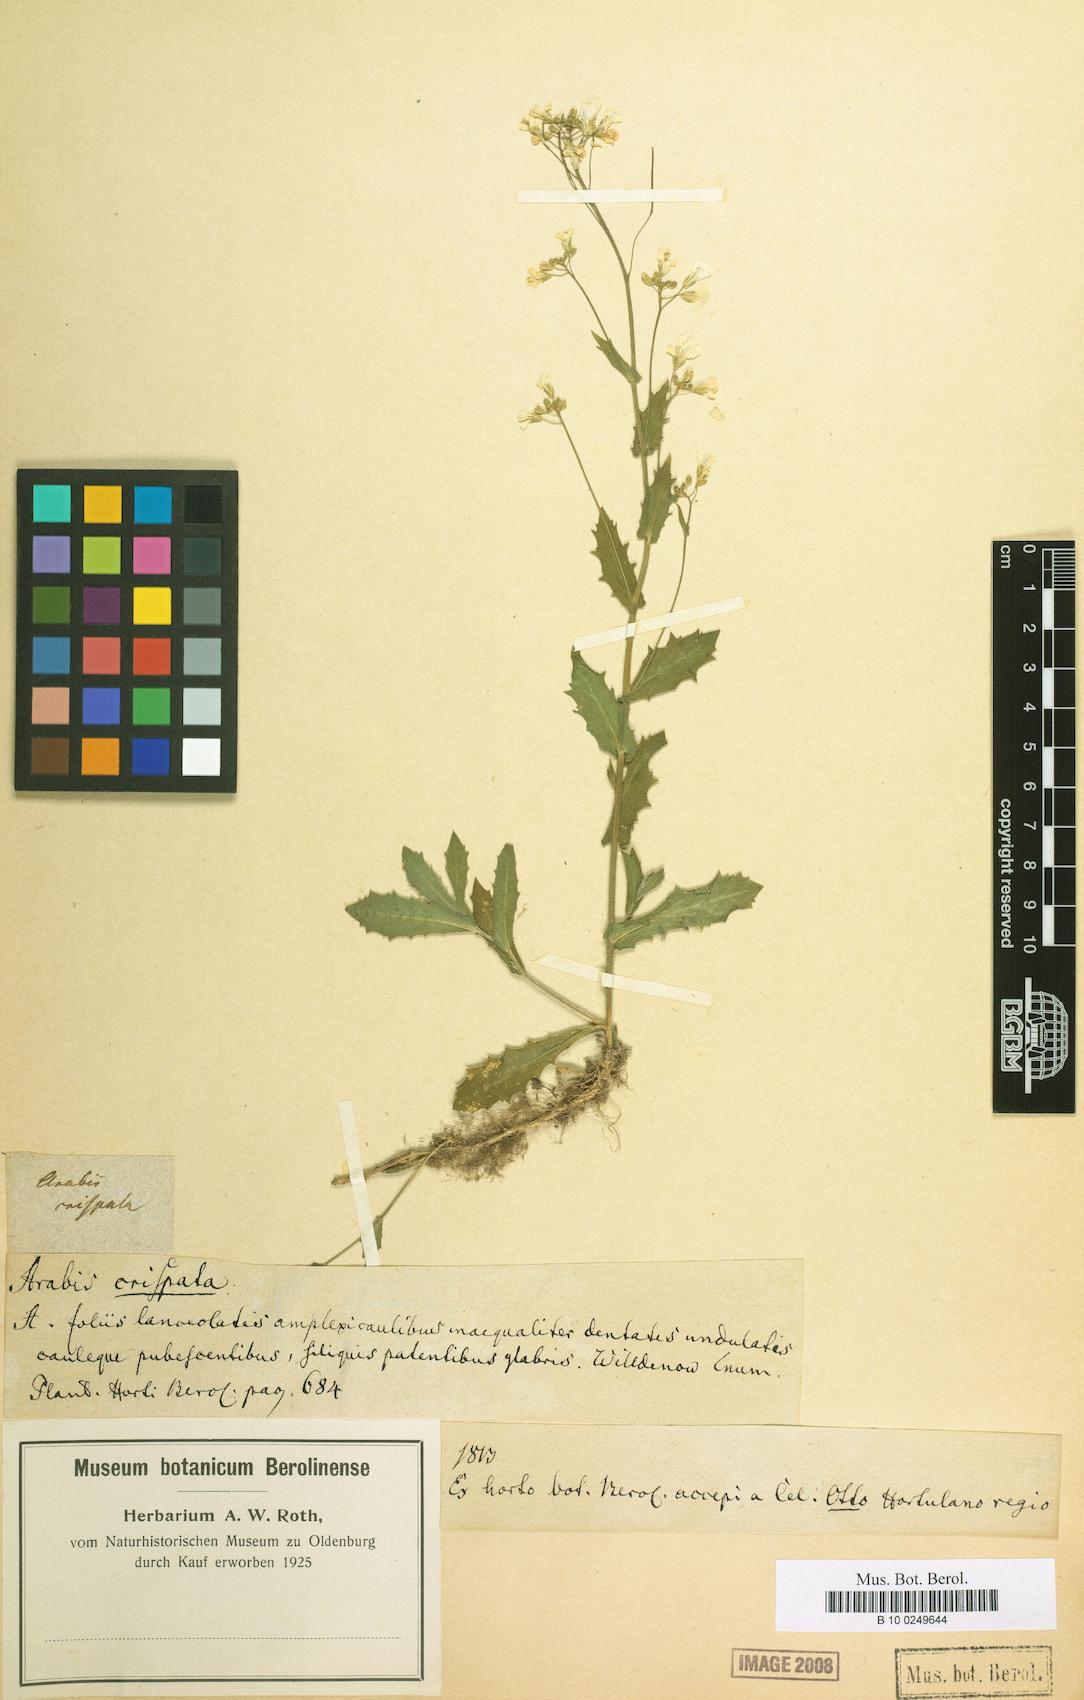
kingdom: Plantae
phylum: Tracheophyta
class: Magnoliopsida
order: Brassicales
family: Brassicaceae
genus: Arabis
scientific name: Arabis alpina
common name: Alpine rock-cress
